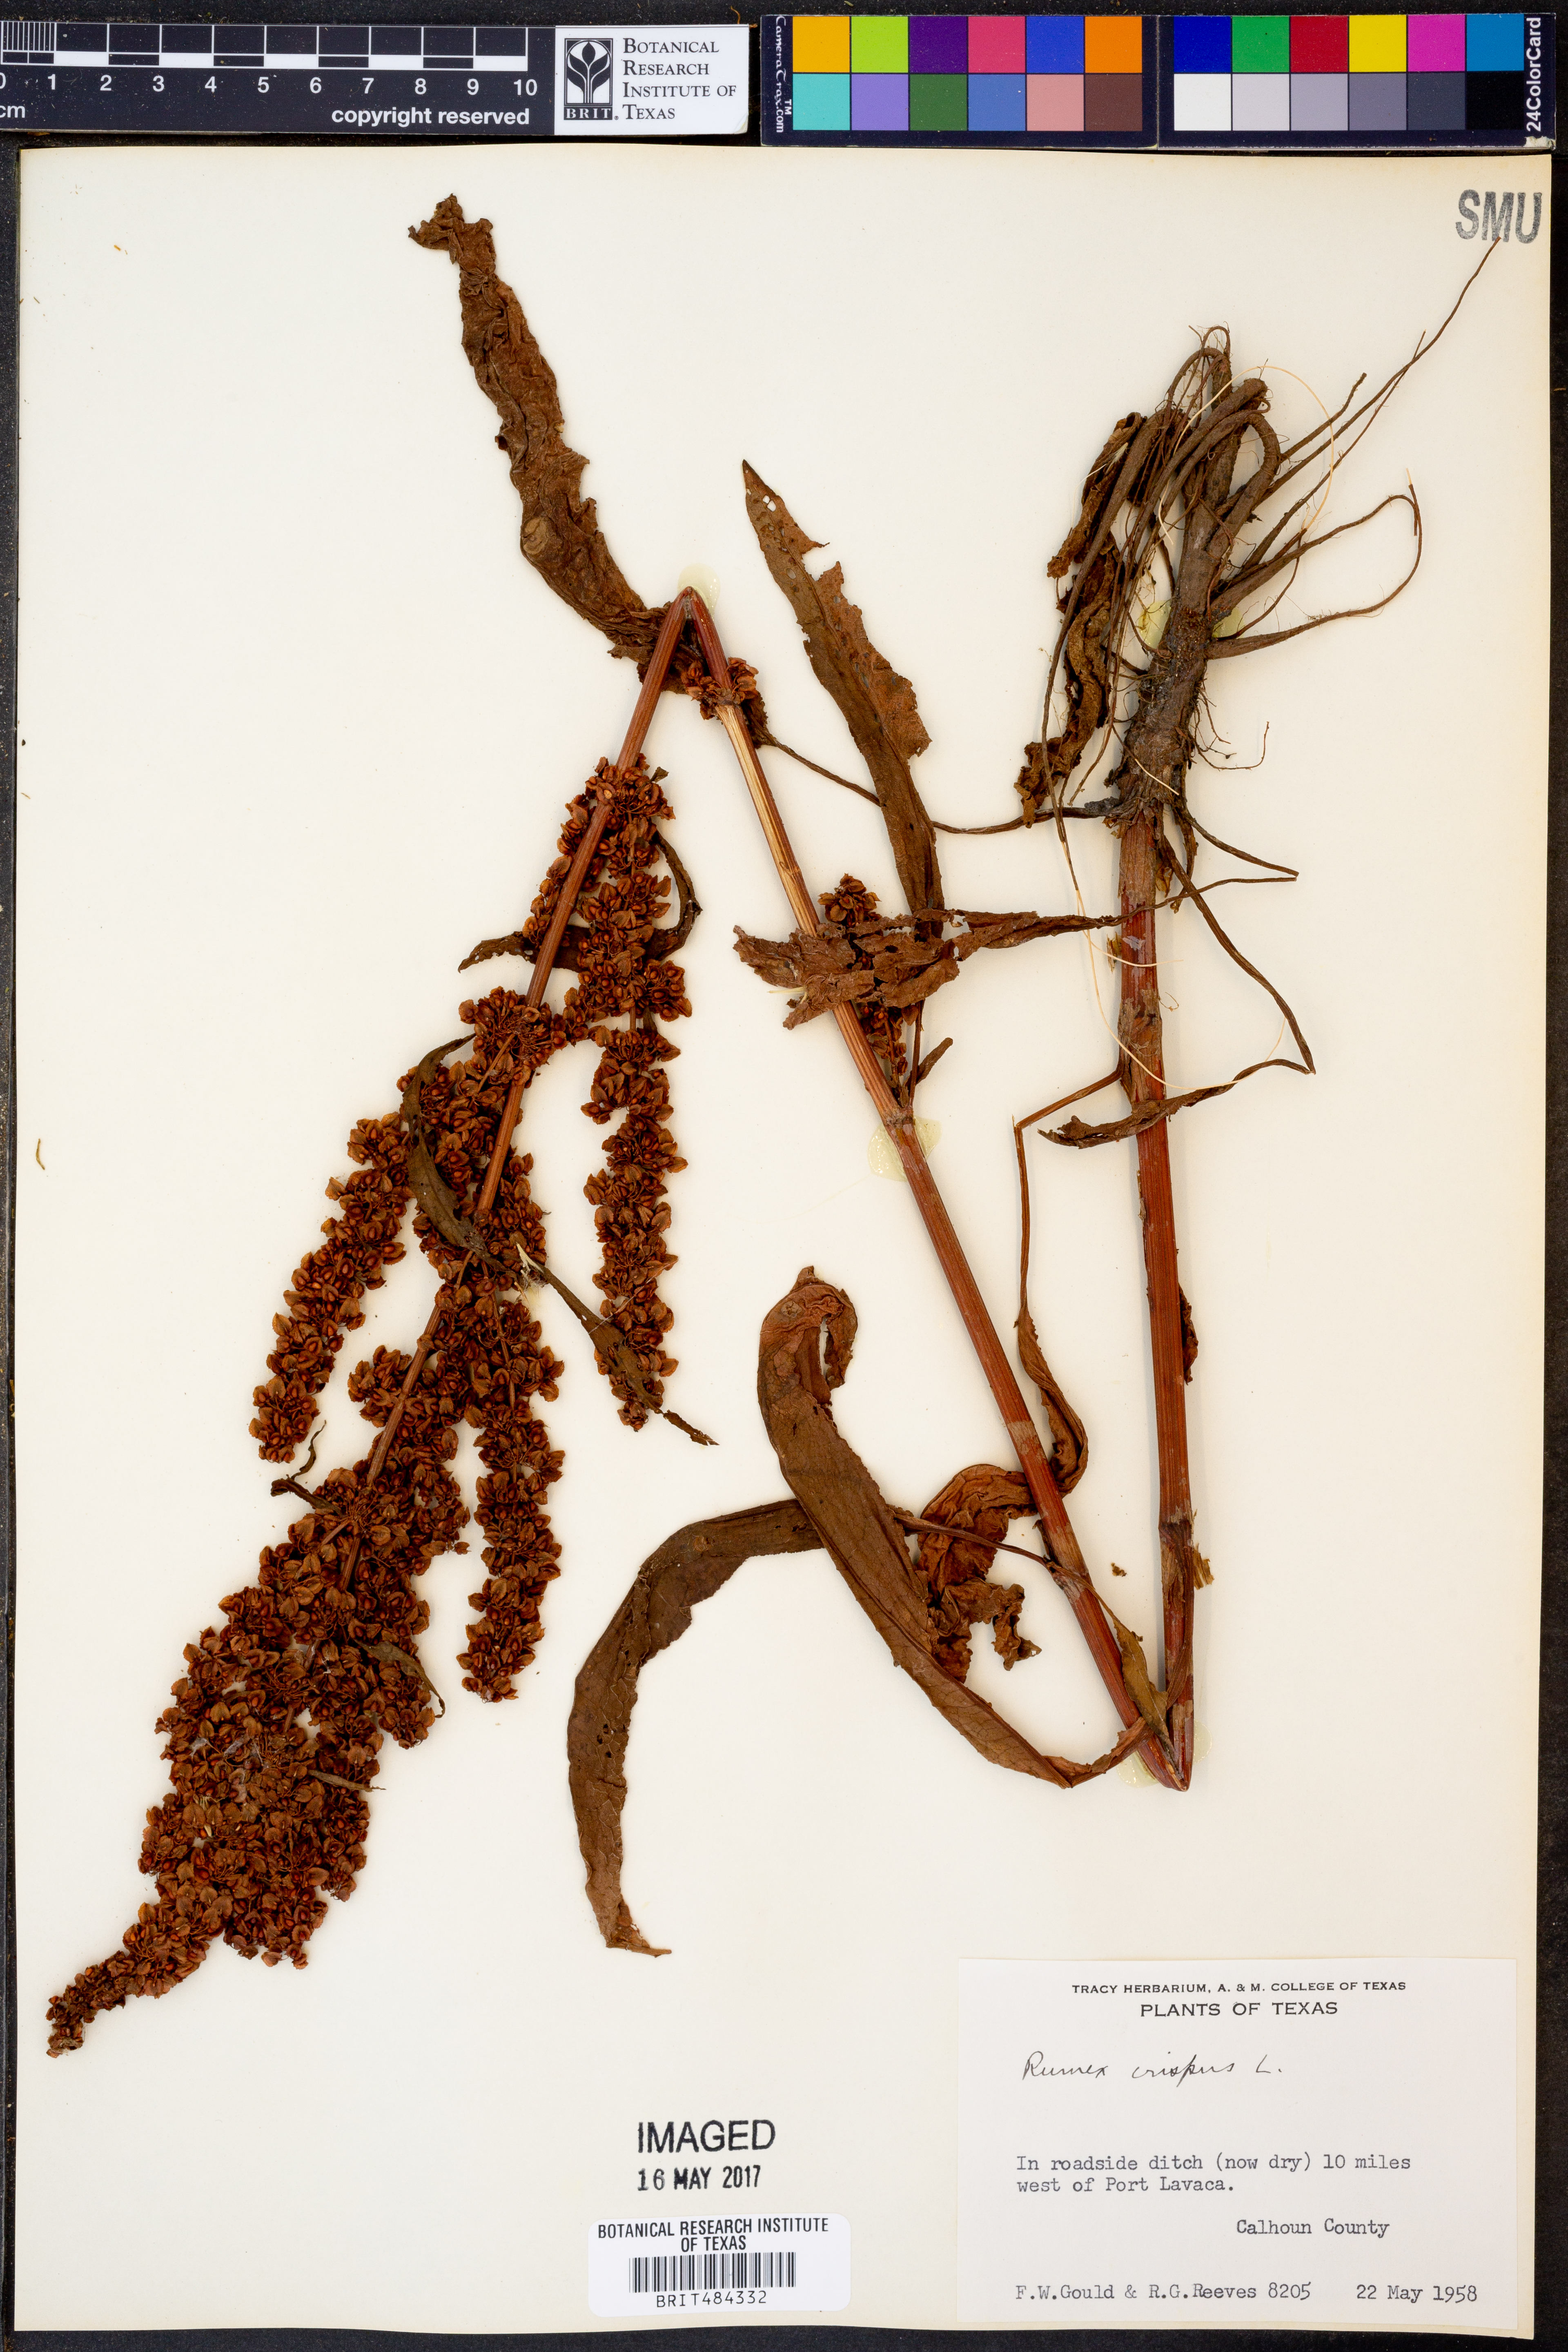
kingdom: Plantae
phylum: Tracheophyta
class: Magnoliopsida
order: Caryophyllales
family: Polygonaceae
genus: Rumex
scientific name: Rumex crispus
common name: Curled dock
